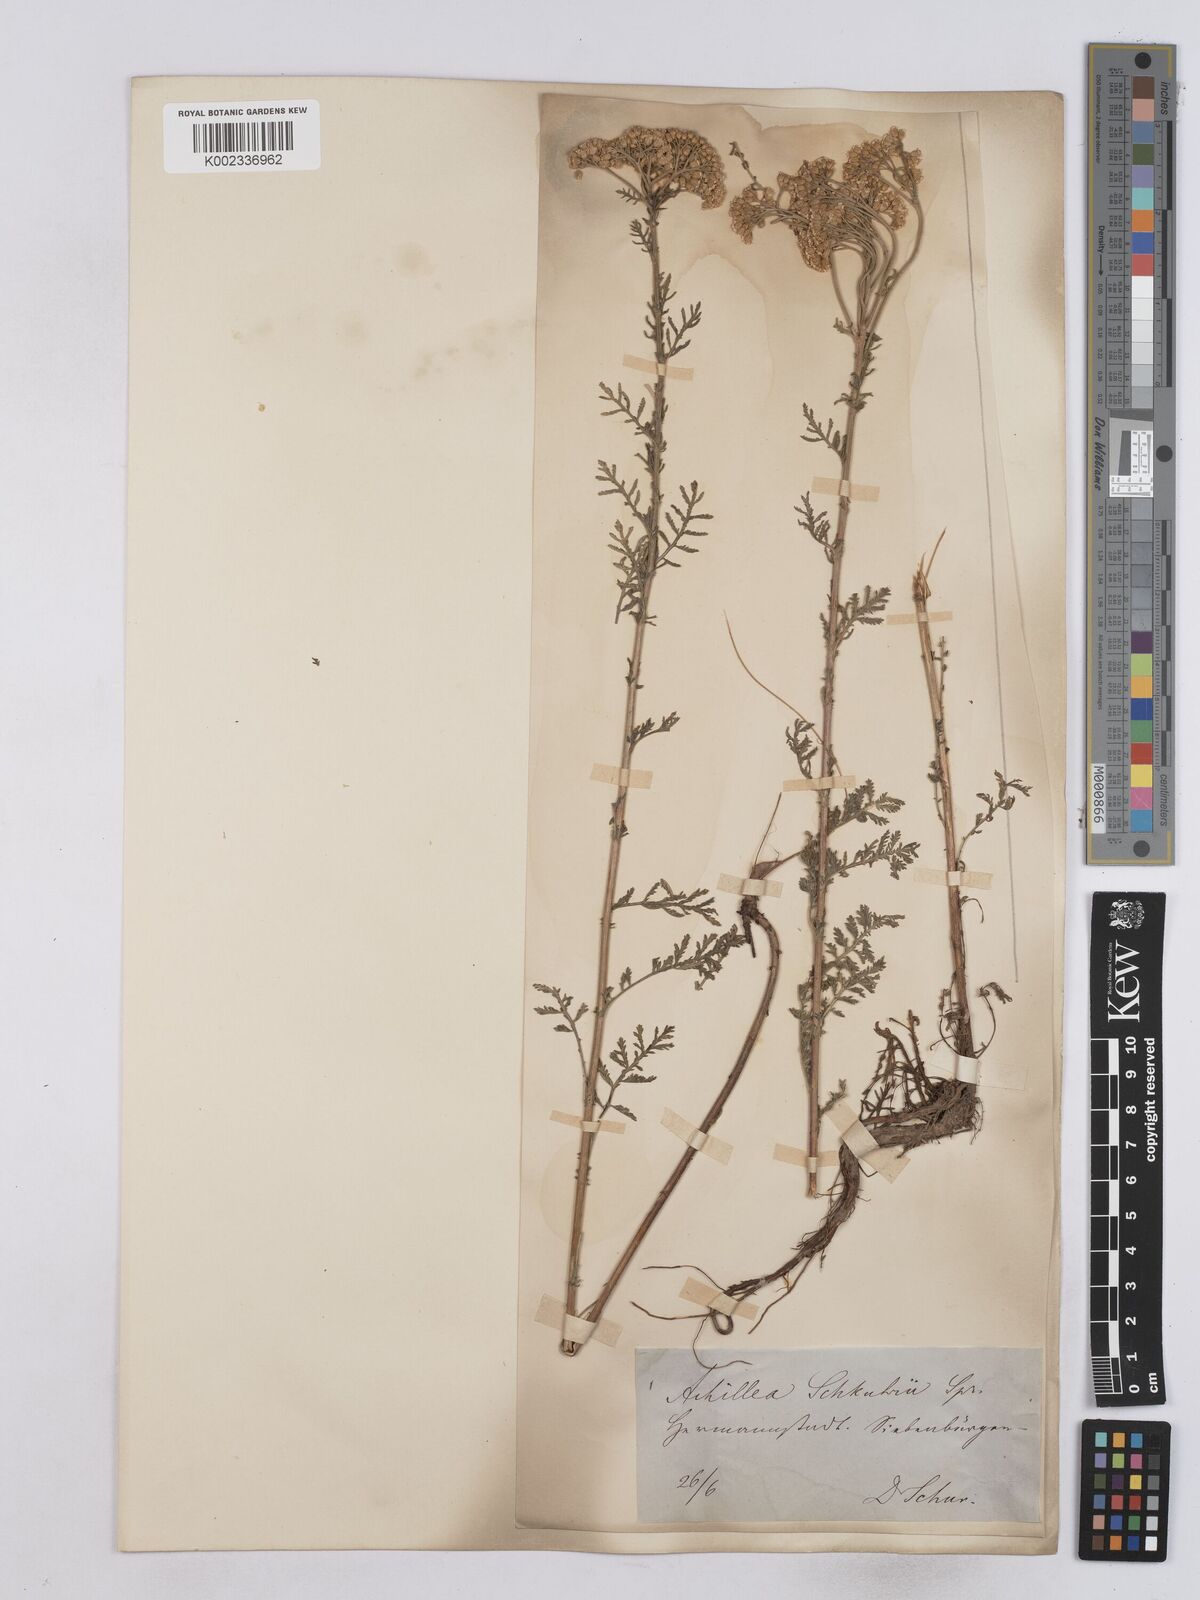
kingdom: Plantae
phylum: Tracheophyta
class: Magnoliopsida
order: Asterales
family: Asteraceae
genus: Achillea
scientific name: Achillea nobilis
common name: Noble yarrow
